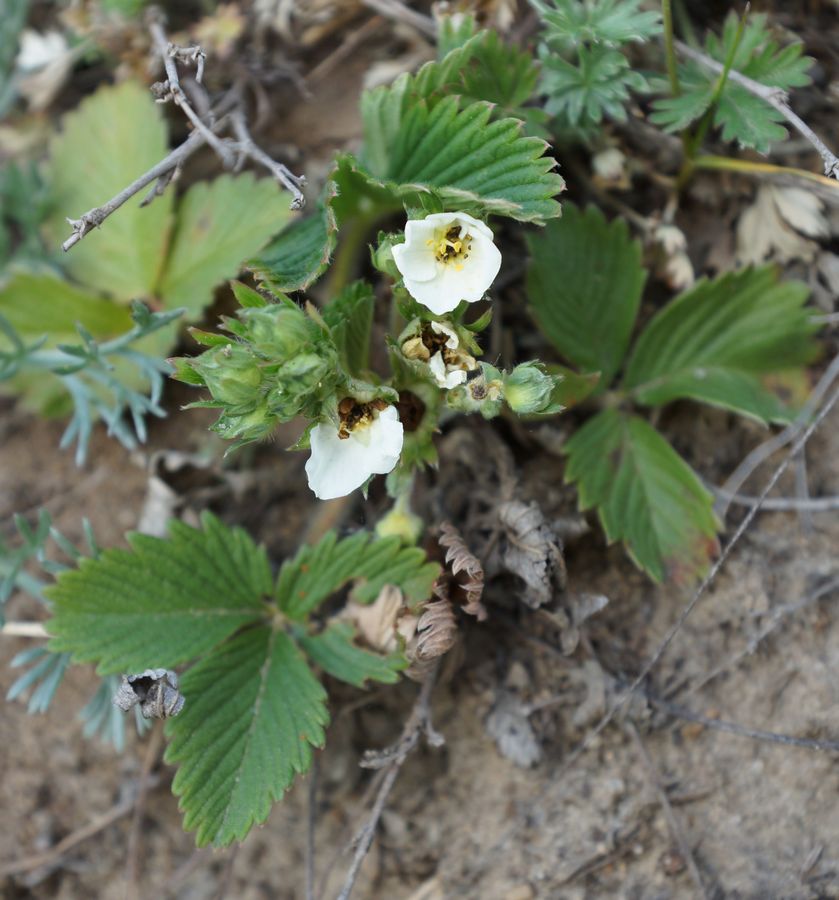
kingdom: Plantae
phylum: Tracheophyta
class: Magnoliopsida
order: Rosales
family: Rosaceae
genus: Fragaria
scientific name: Fragaria
